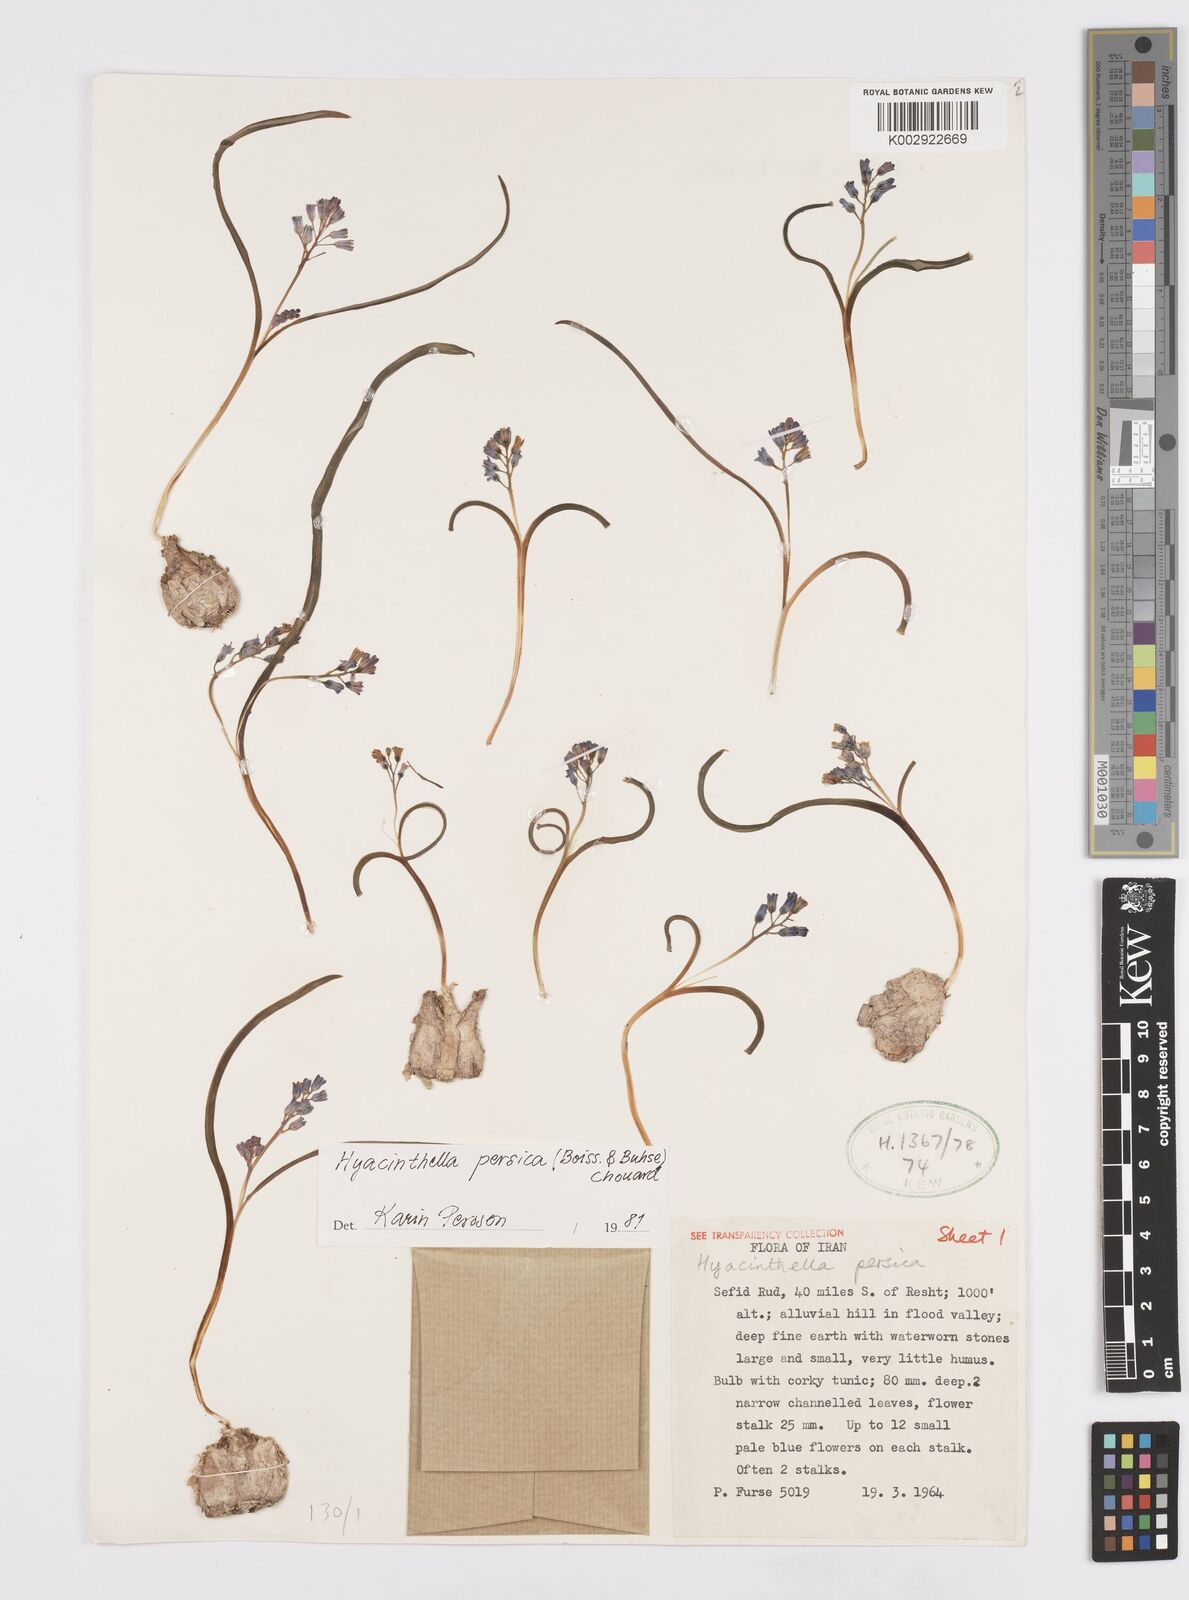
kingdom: Plantae
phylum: Tracheophyta
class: Liliopsida
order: Asparagales
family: Asparagaceae
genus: Hyacinthella
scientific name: Hyacinthella persica
